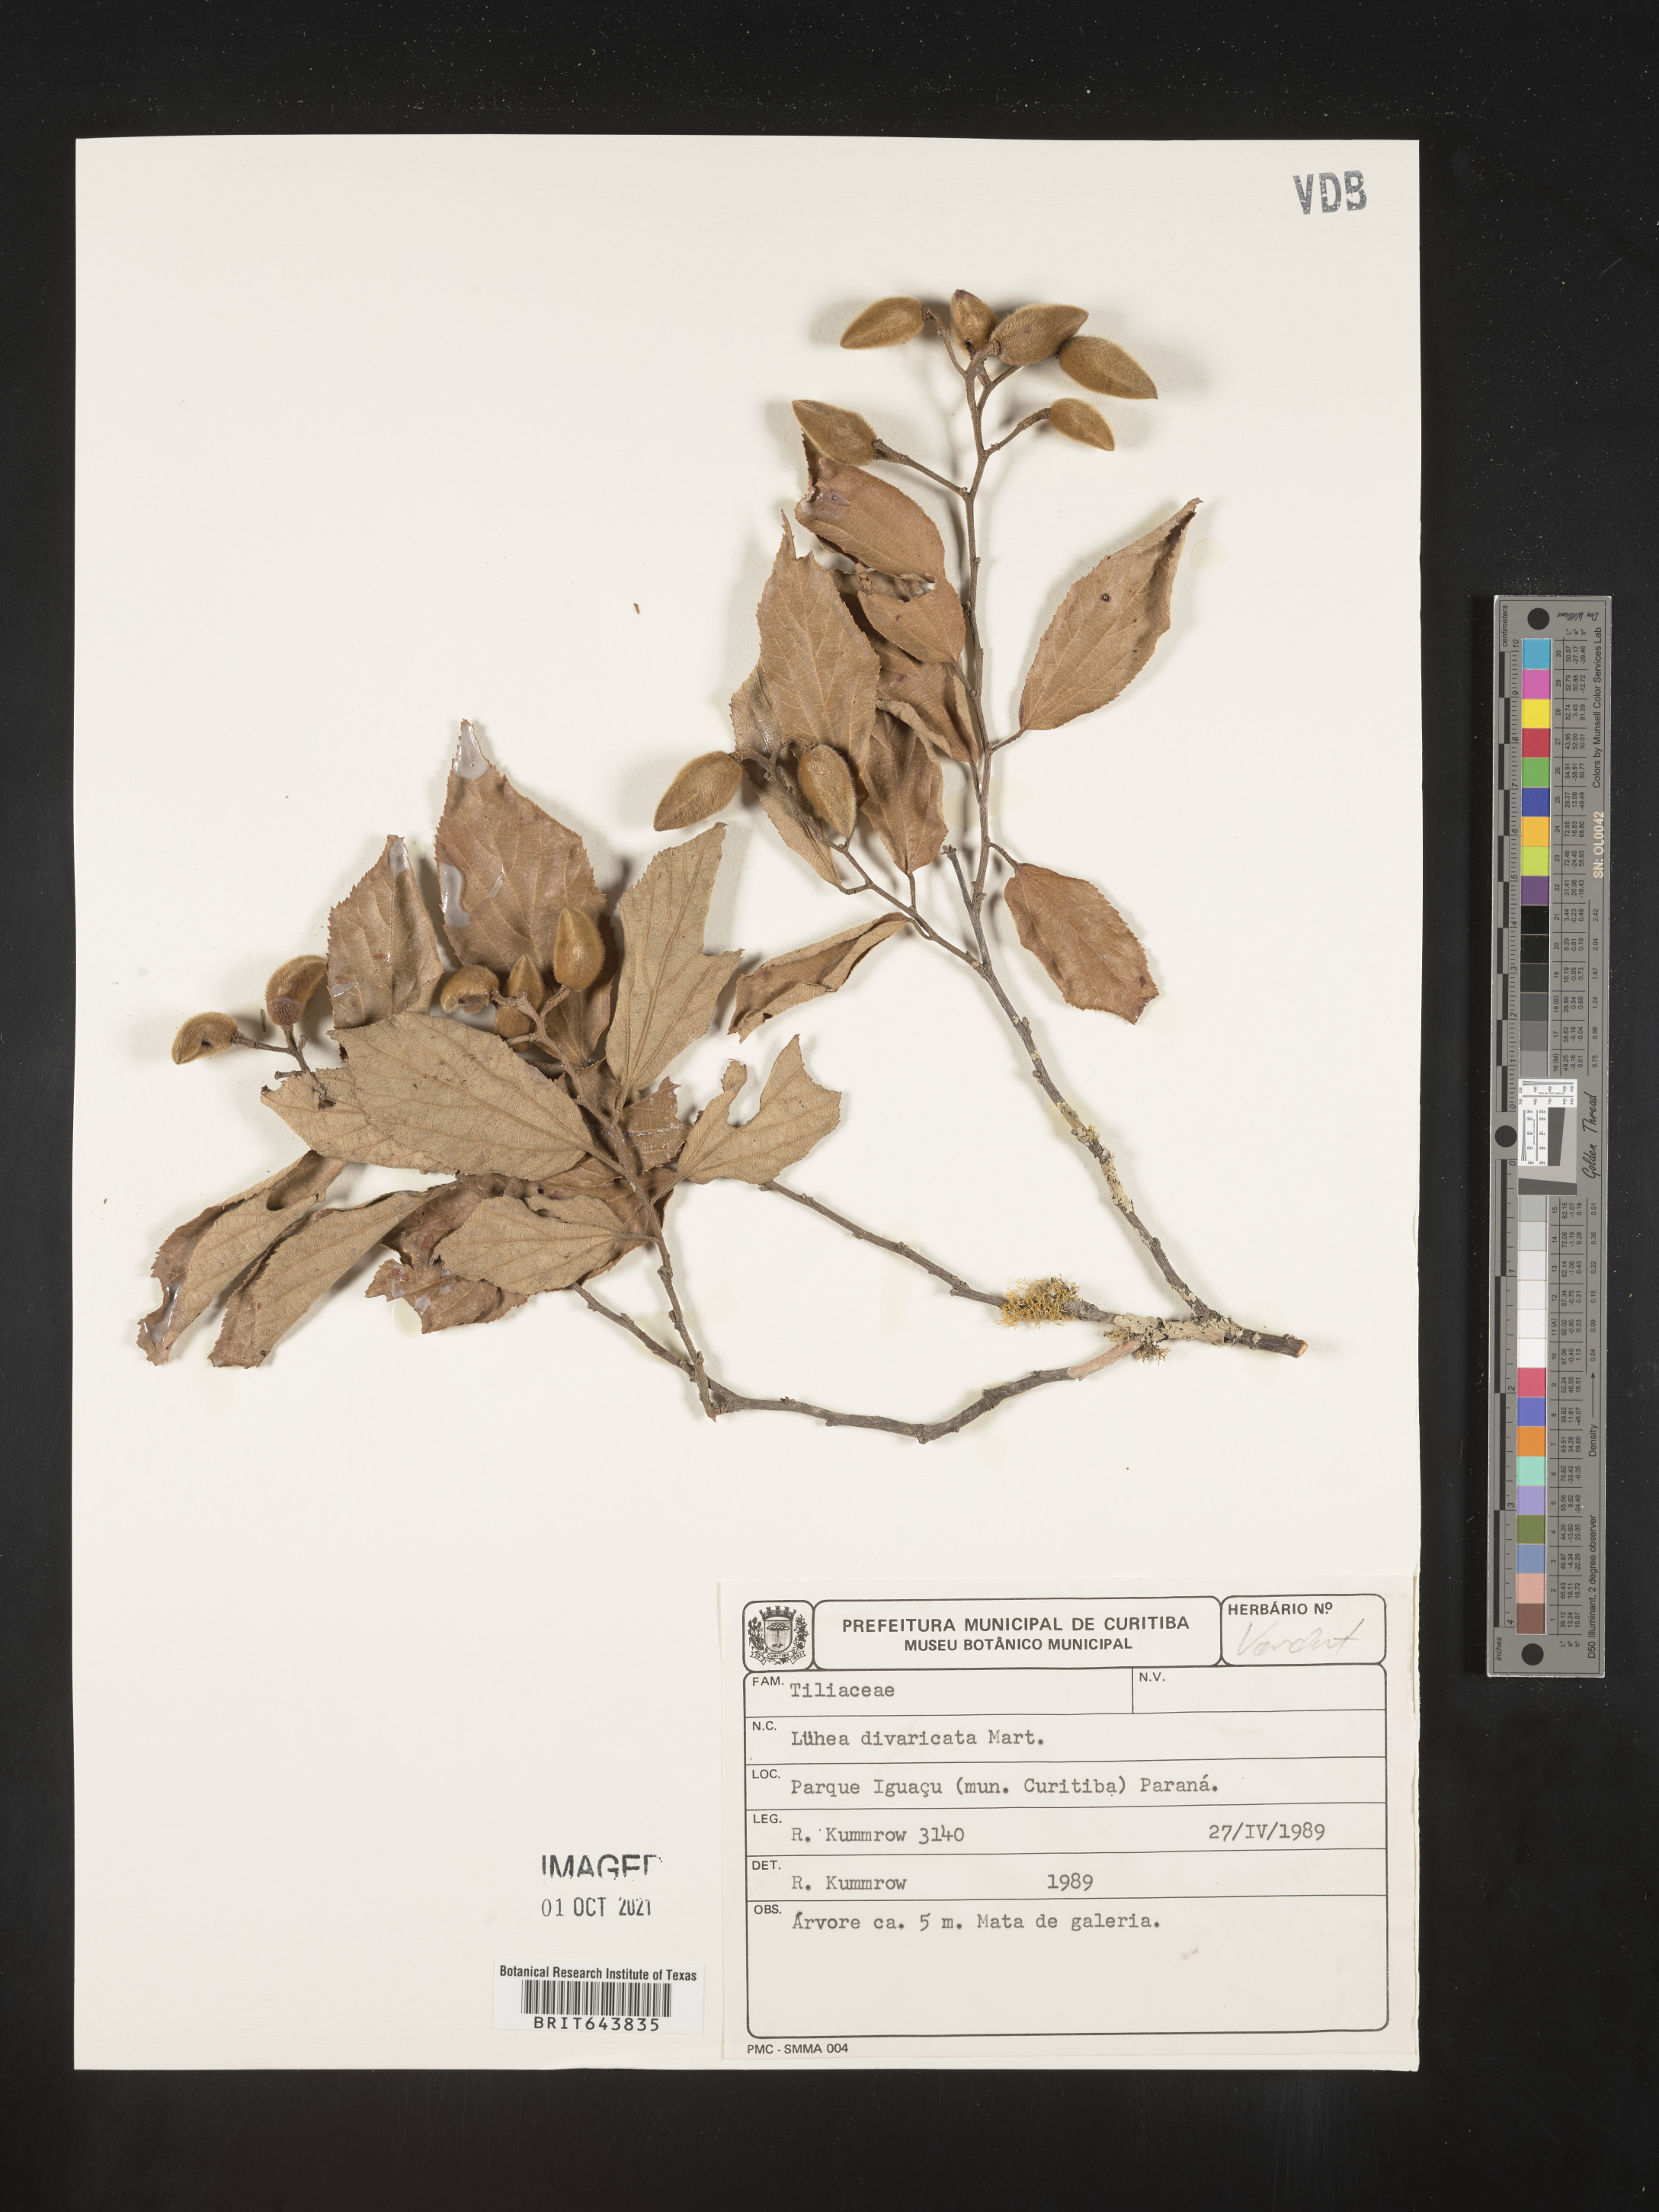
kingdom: Plantae
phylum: Tracheophyta
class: Magnoliopsida
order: Malvales
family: Malvaceae
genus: Luehea
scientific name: Luehea
